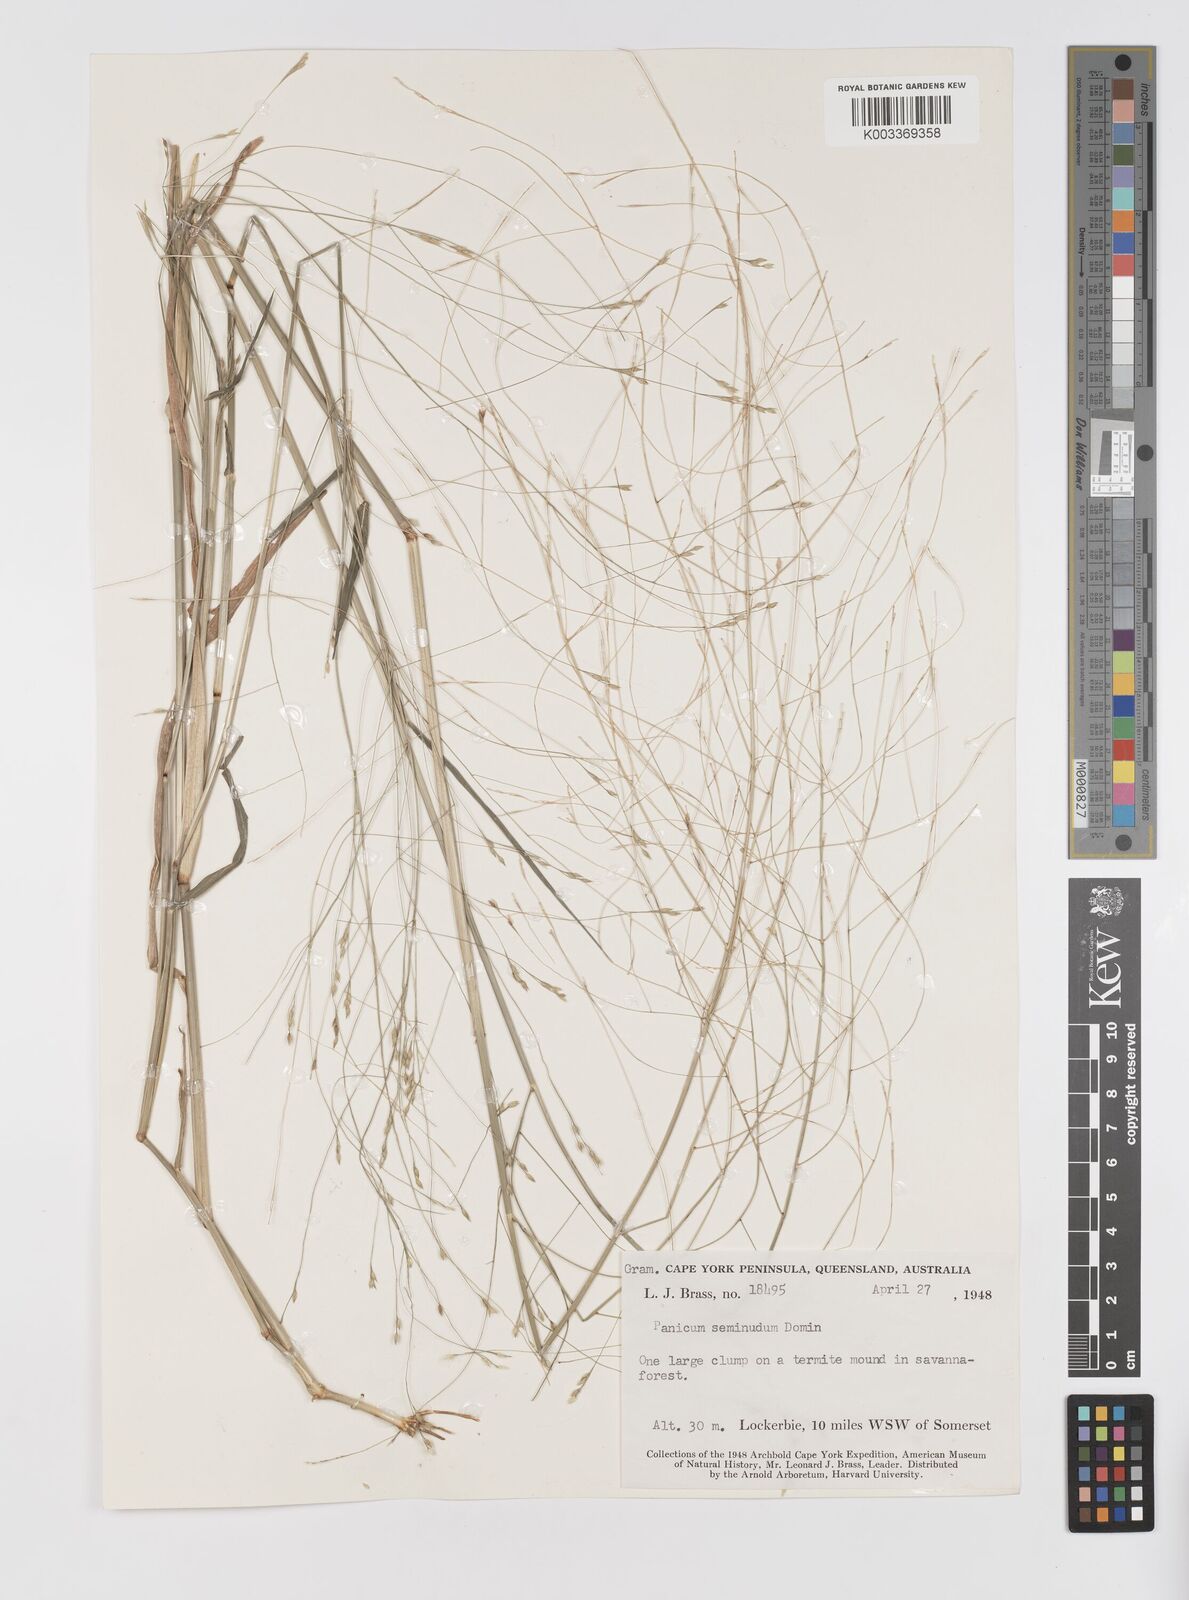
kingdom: Plantae
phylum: Tracheophyta
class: Liliopsida
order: Poales
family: Poaceae
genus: Panicum
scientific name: Panicum seminudum
